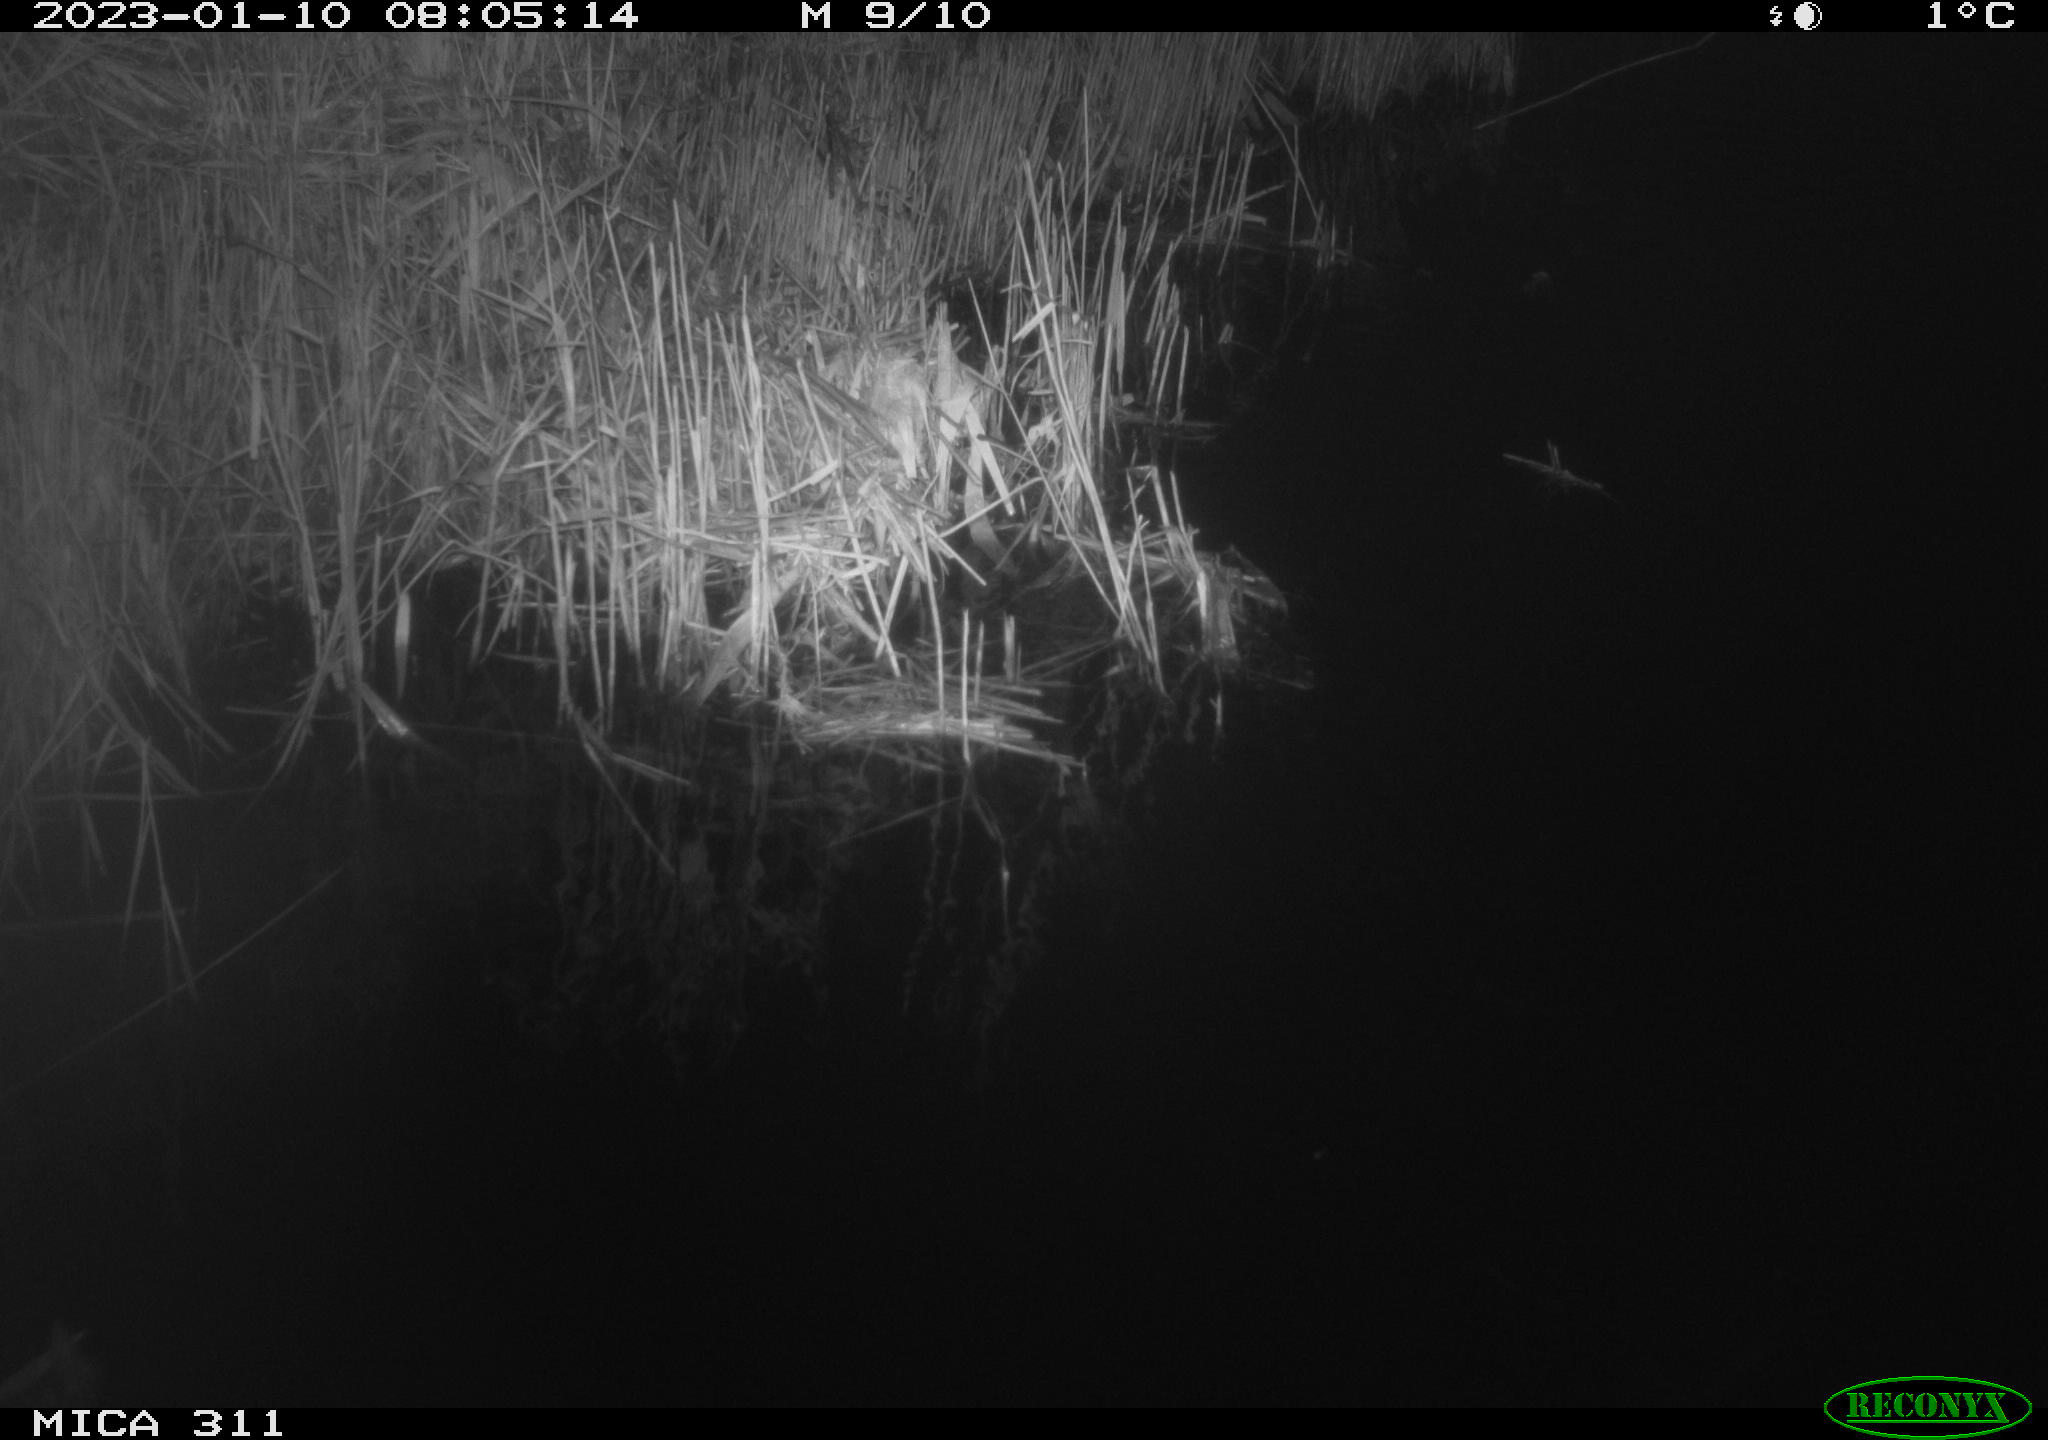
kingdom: Animalia
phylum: Chordata
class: Aves
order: Gruiformes
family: Rallidae
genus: Gallinula
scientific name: Gallinula chloropus
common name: Common moorhen
